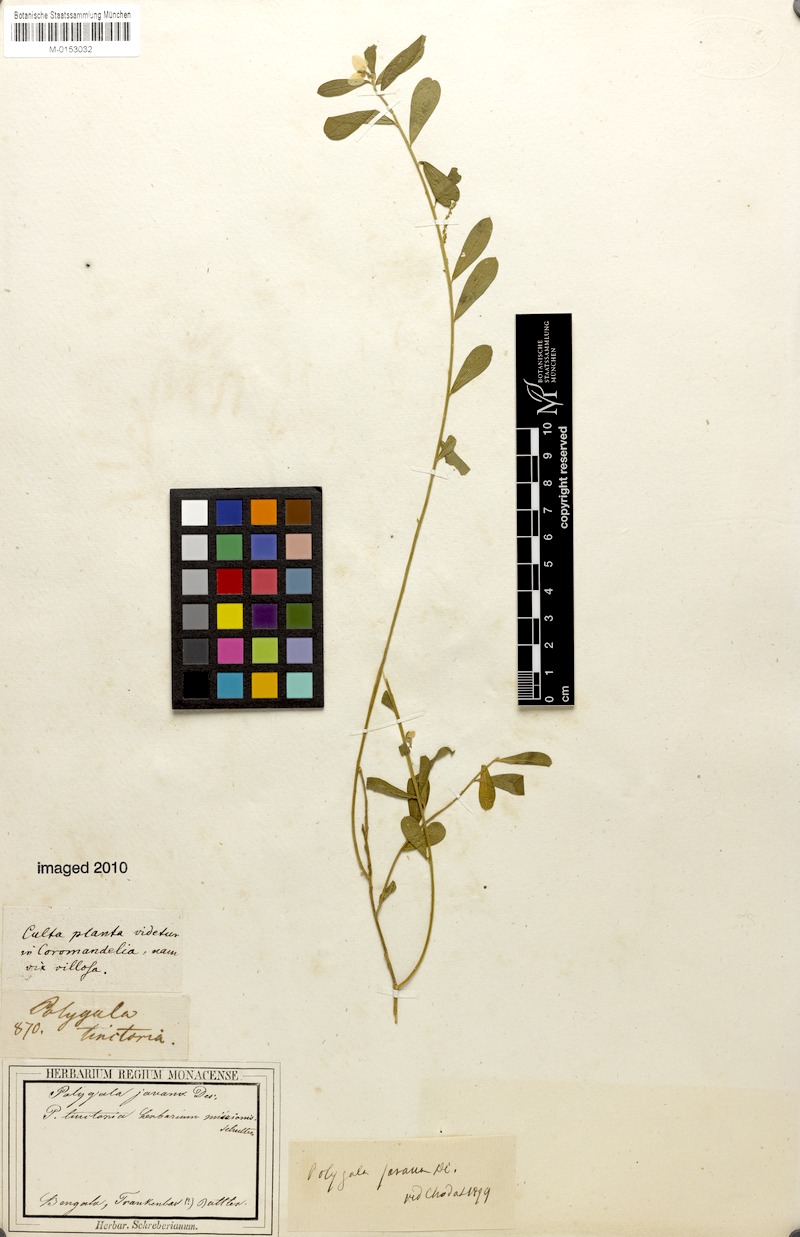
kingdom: Plantae
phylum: Tracheophyta
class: Magnoliopsida
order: Fabales
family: Polygalaceae
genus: Polygala
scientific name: Polygala javana
